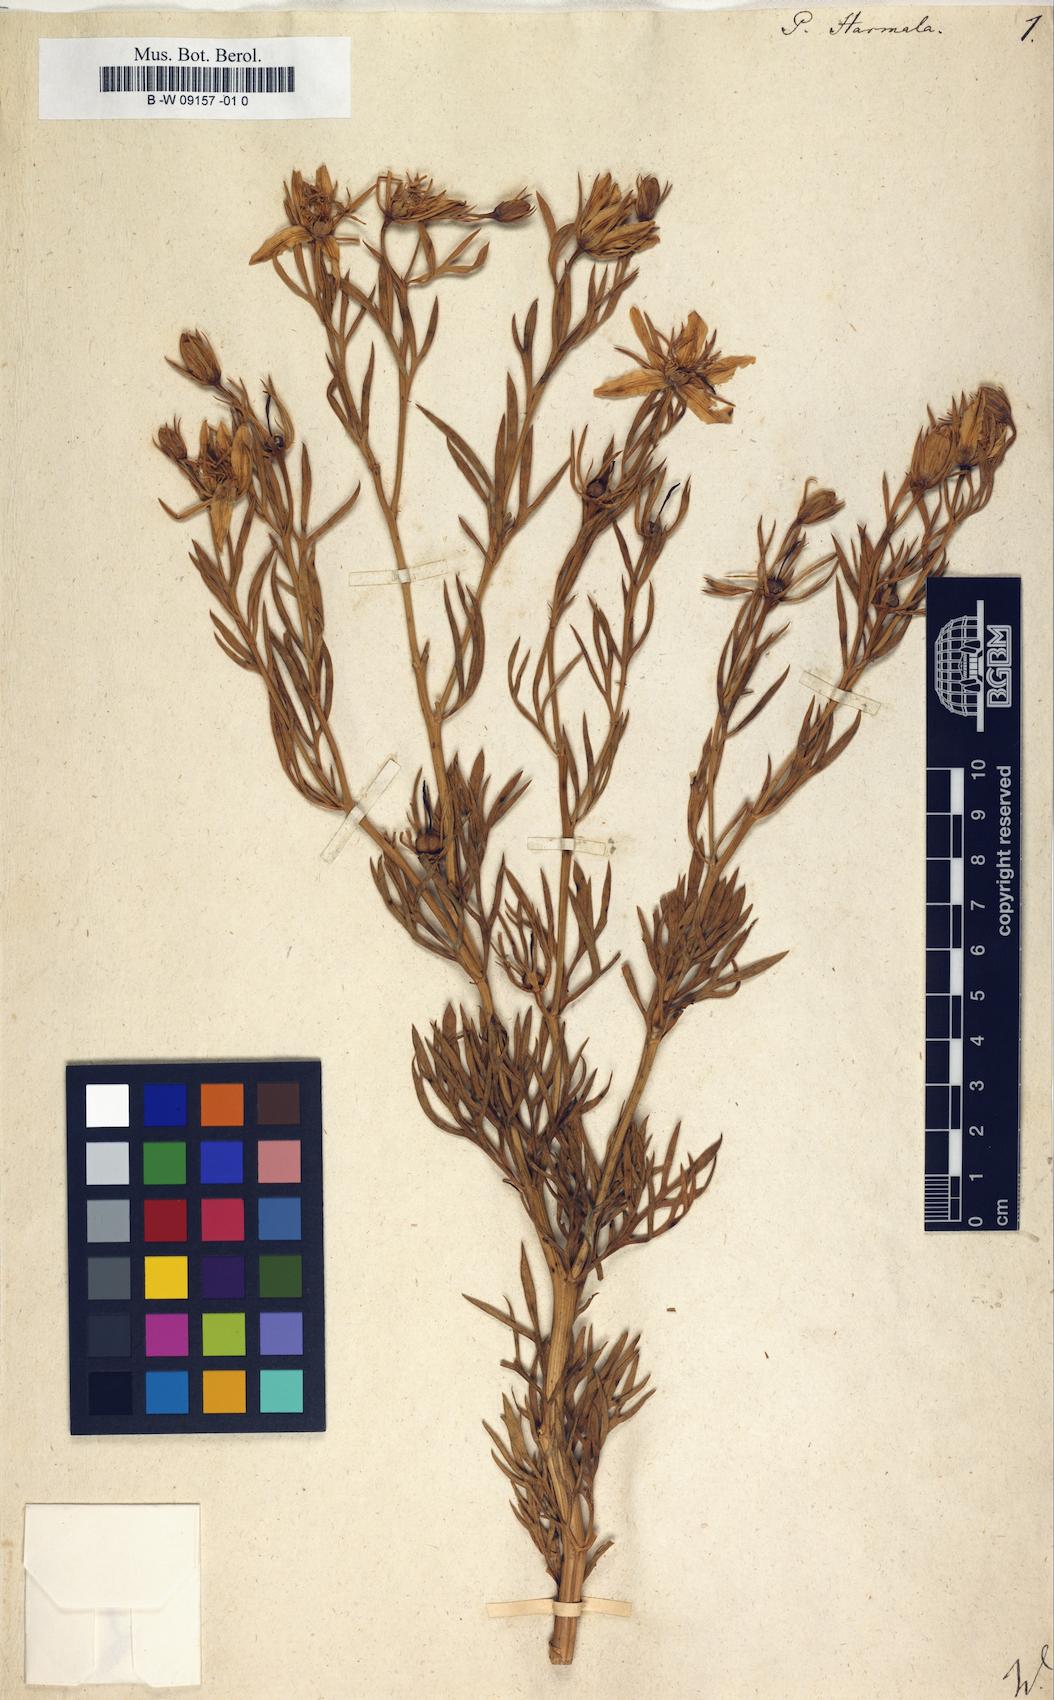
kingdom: Plantae
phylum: Tracheophyta
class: Magnoliopsida
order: Sapindales
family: Tetradiclidaceae
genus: Peganum
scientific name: Peganum harmala
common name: Harmal peganum
